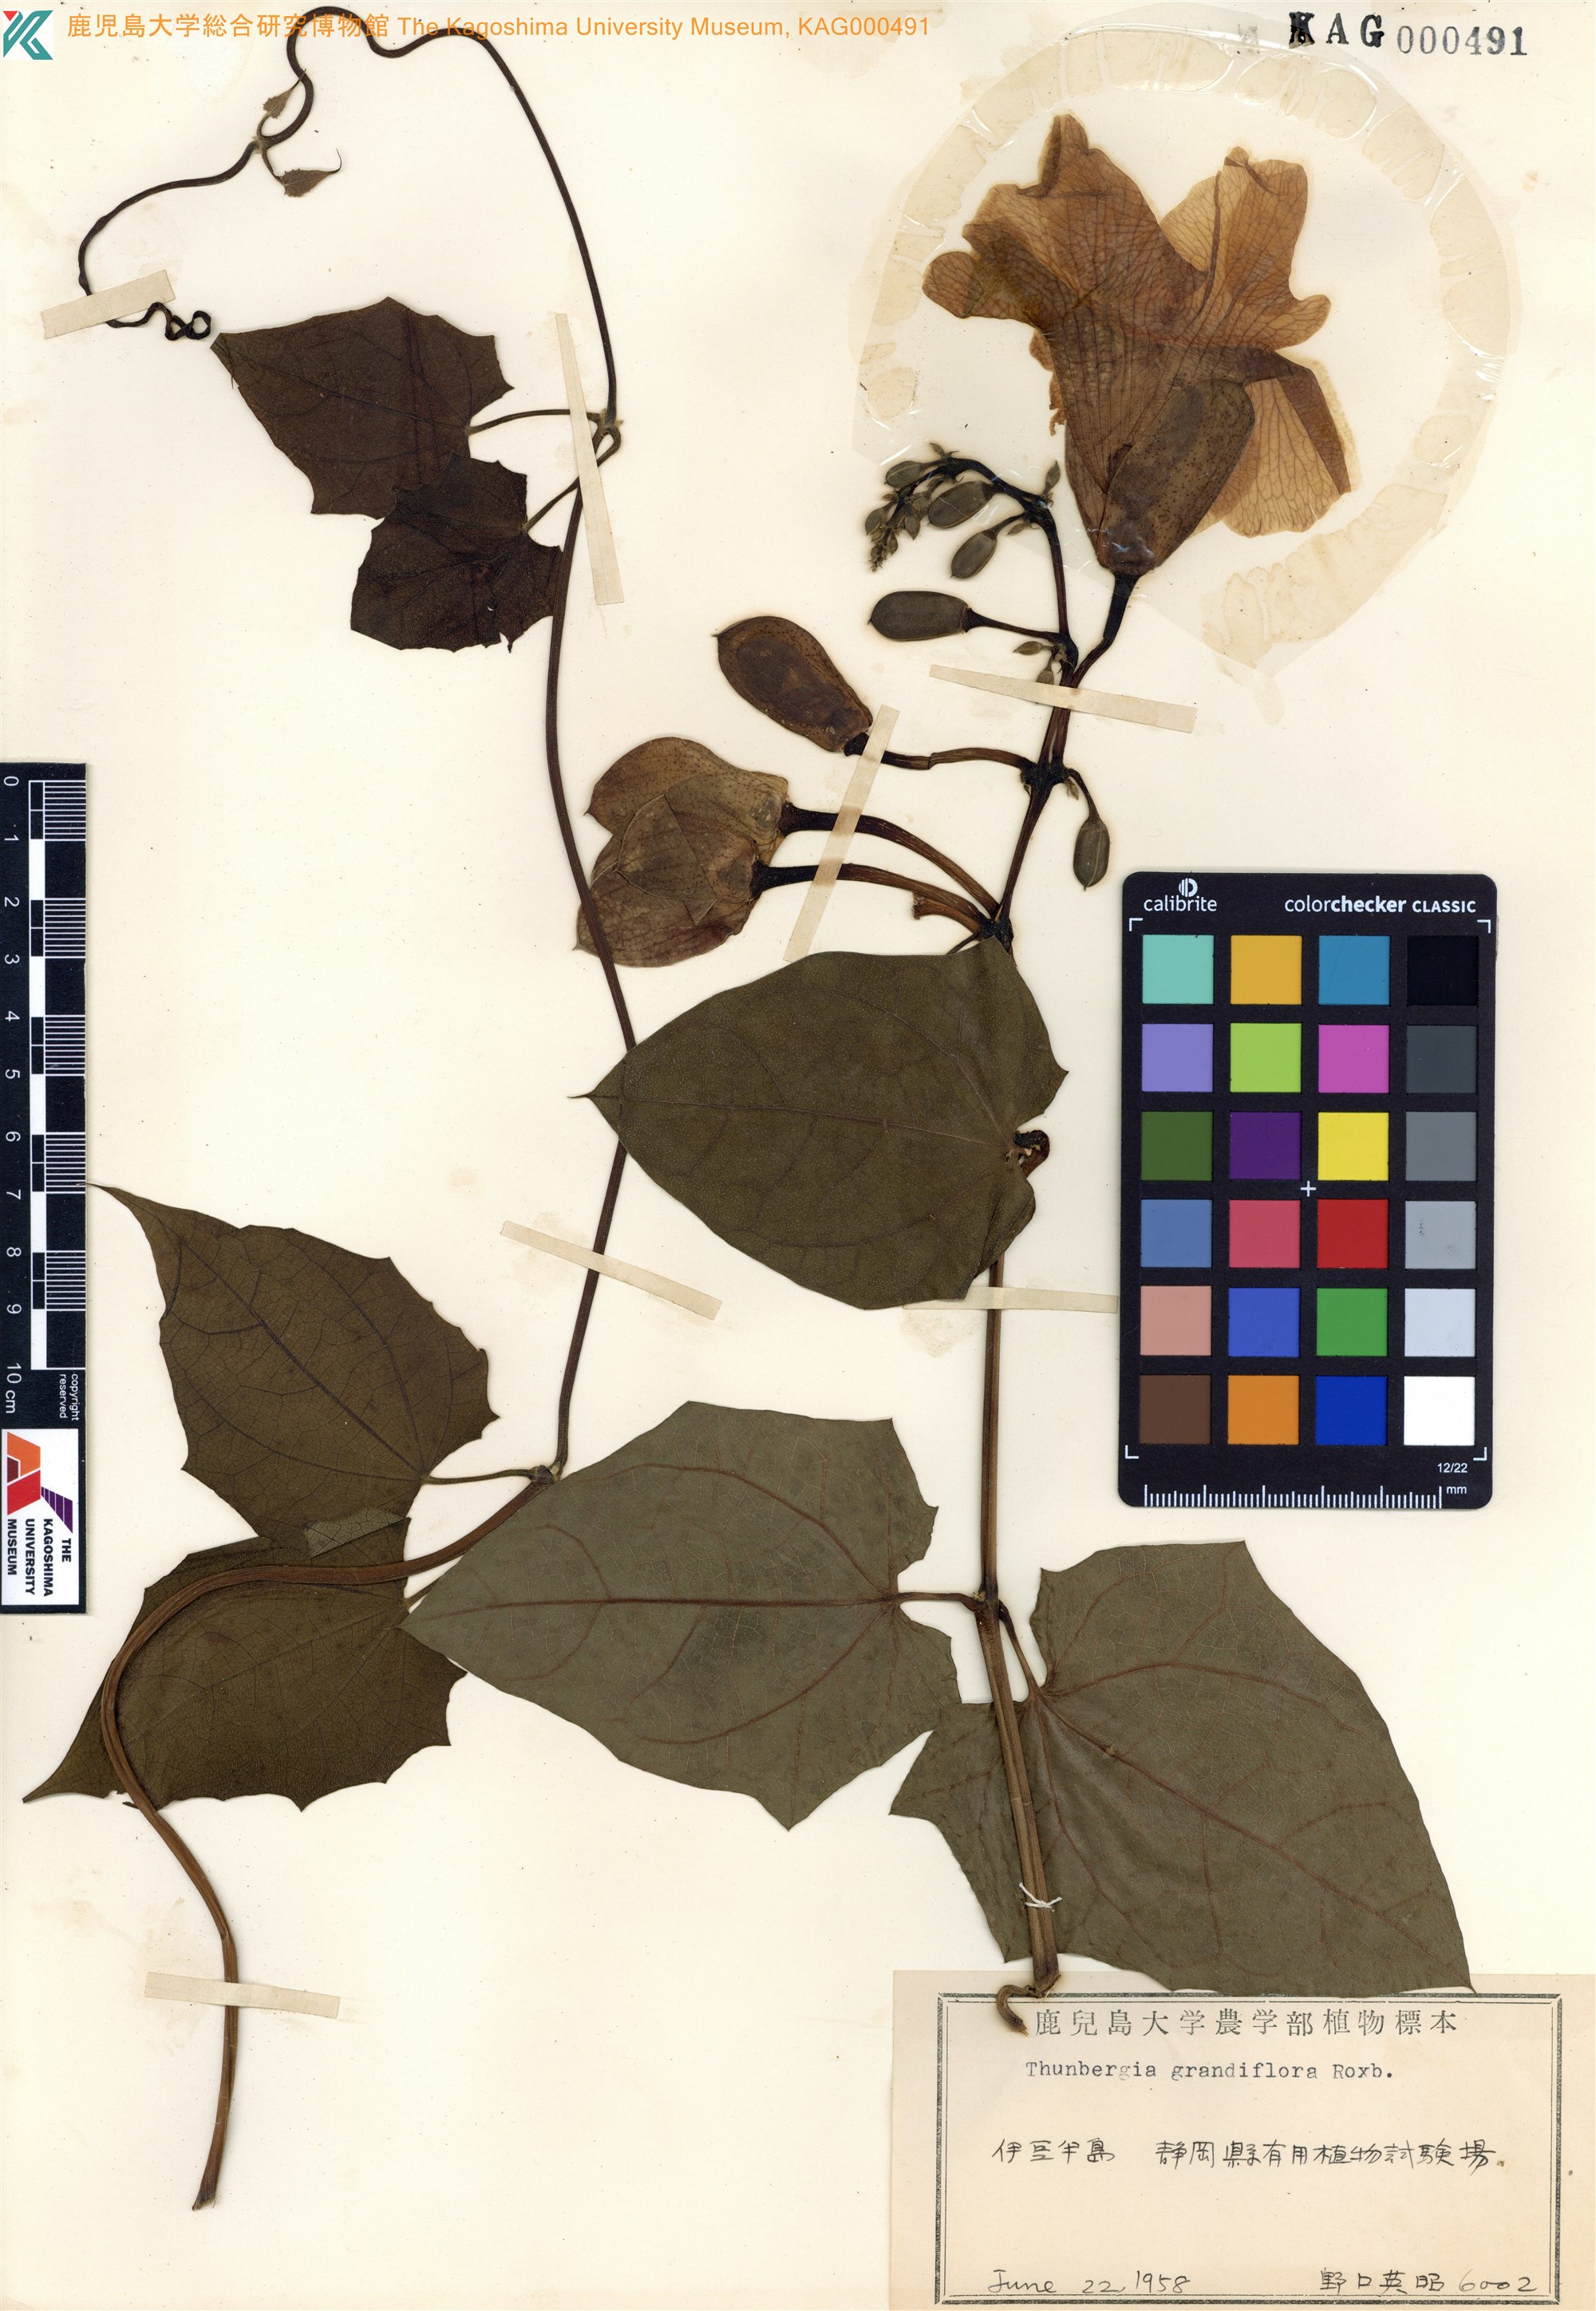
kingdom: Plantae
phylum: Tracheophyta
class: Magnoliopsida
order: Lamiales
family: Acanthaceae
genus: Thunbergia
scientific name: Thunbergia grandiflora
